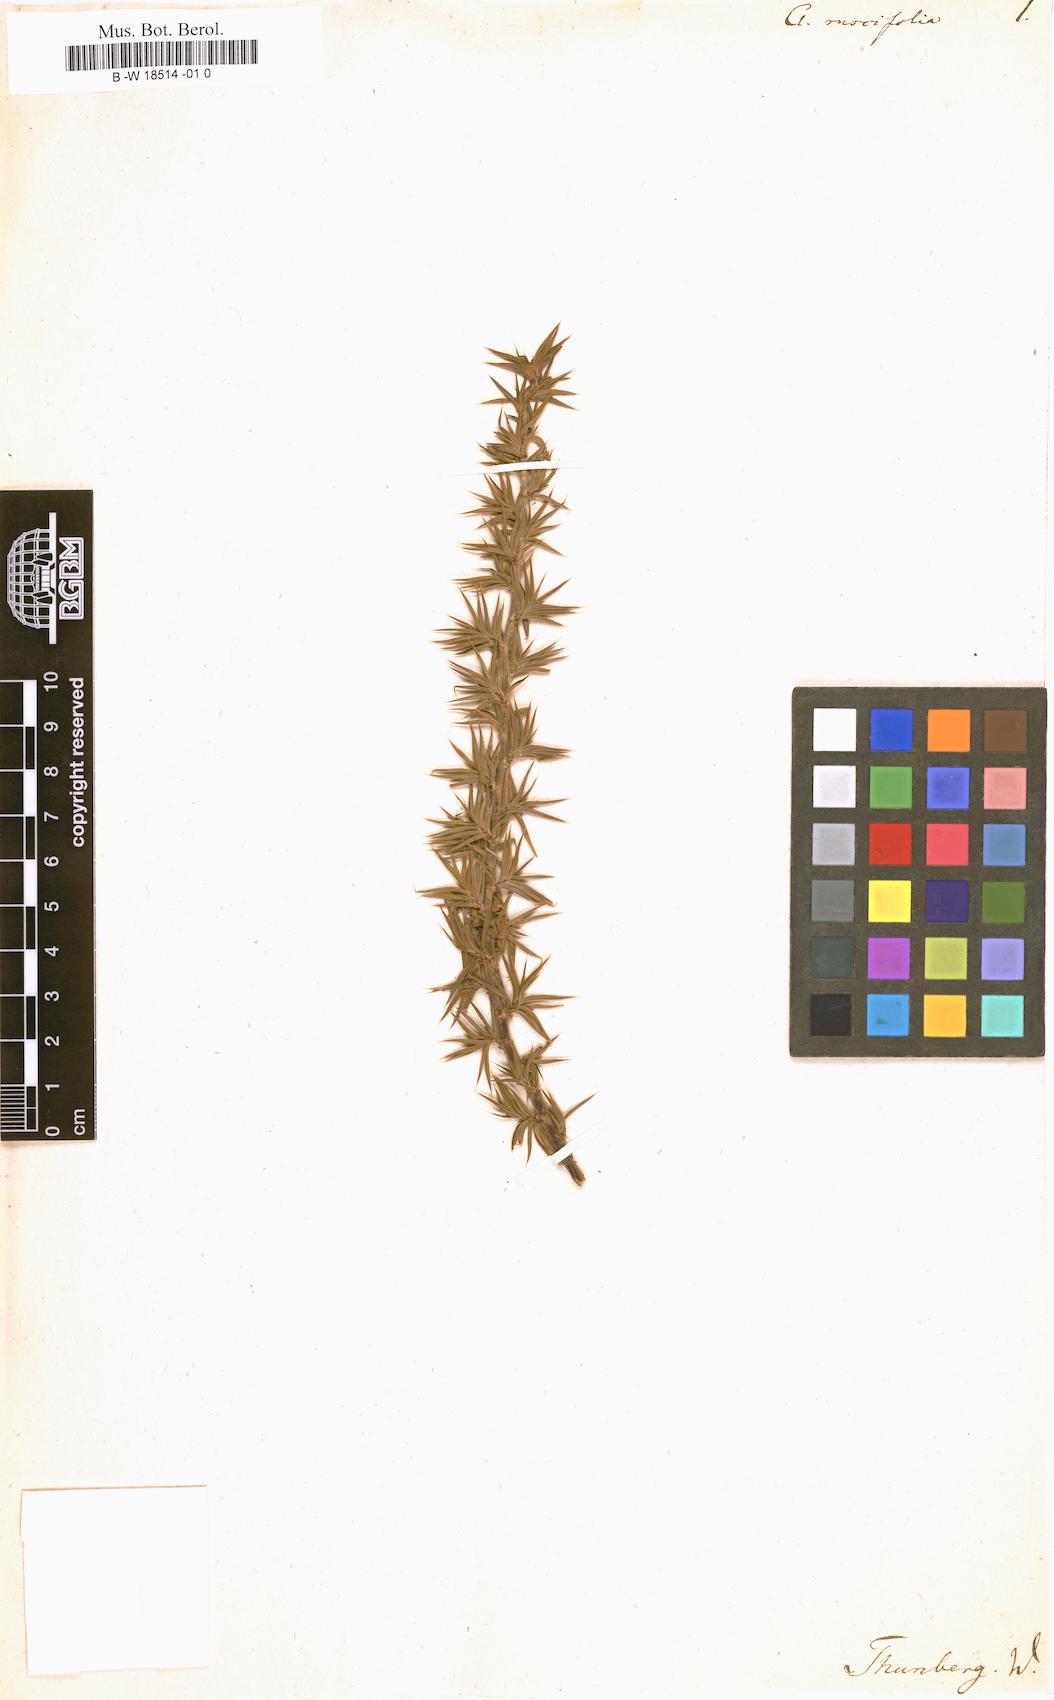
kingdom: Plantae
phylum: Tracheophyta
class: Magnoliopsida
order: Rosales
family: Rosaceae
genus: Cliffortia
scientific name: Cliffortia ruscifolia
